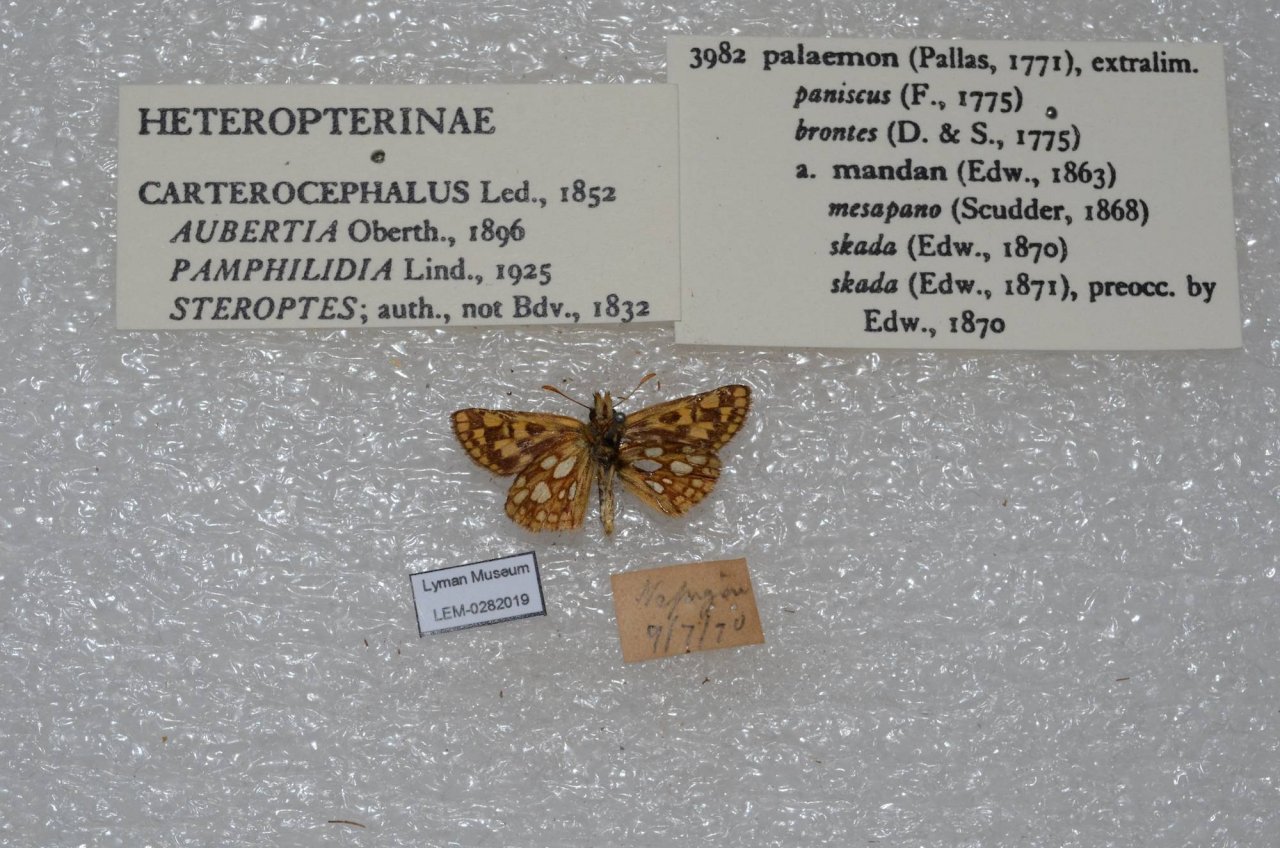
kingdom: Animalia
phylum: Arthropoda
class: Insecta
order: Lepidoptera
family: Hesperiidae
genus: Carterocephalus
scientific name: Carterocephalus palaemon
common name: Chequered Skipper
